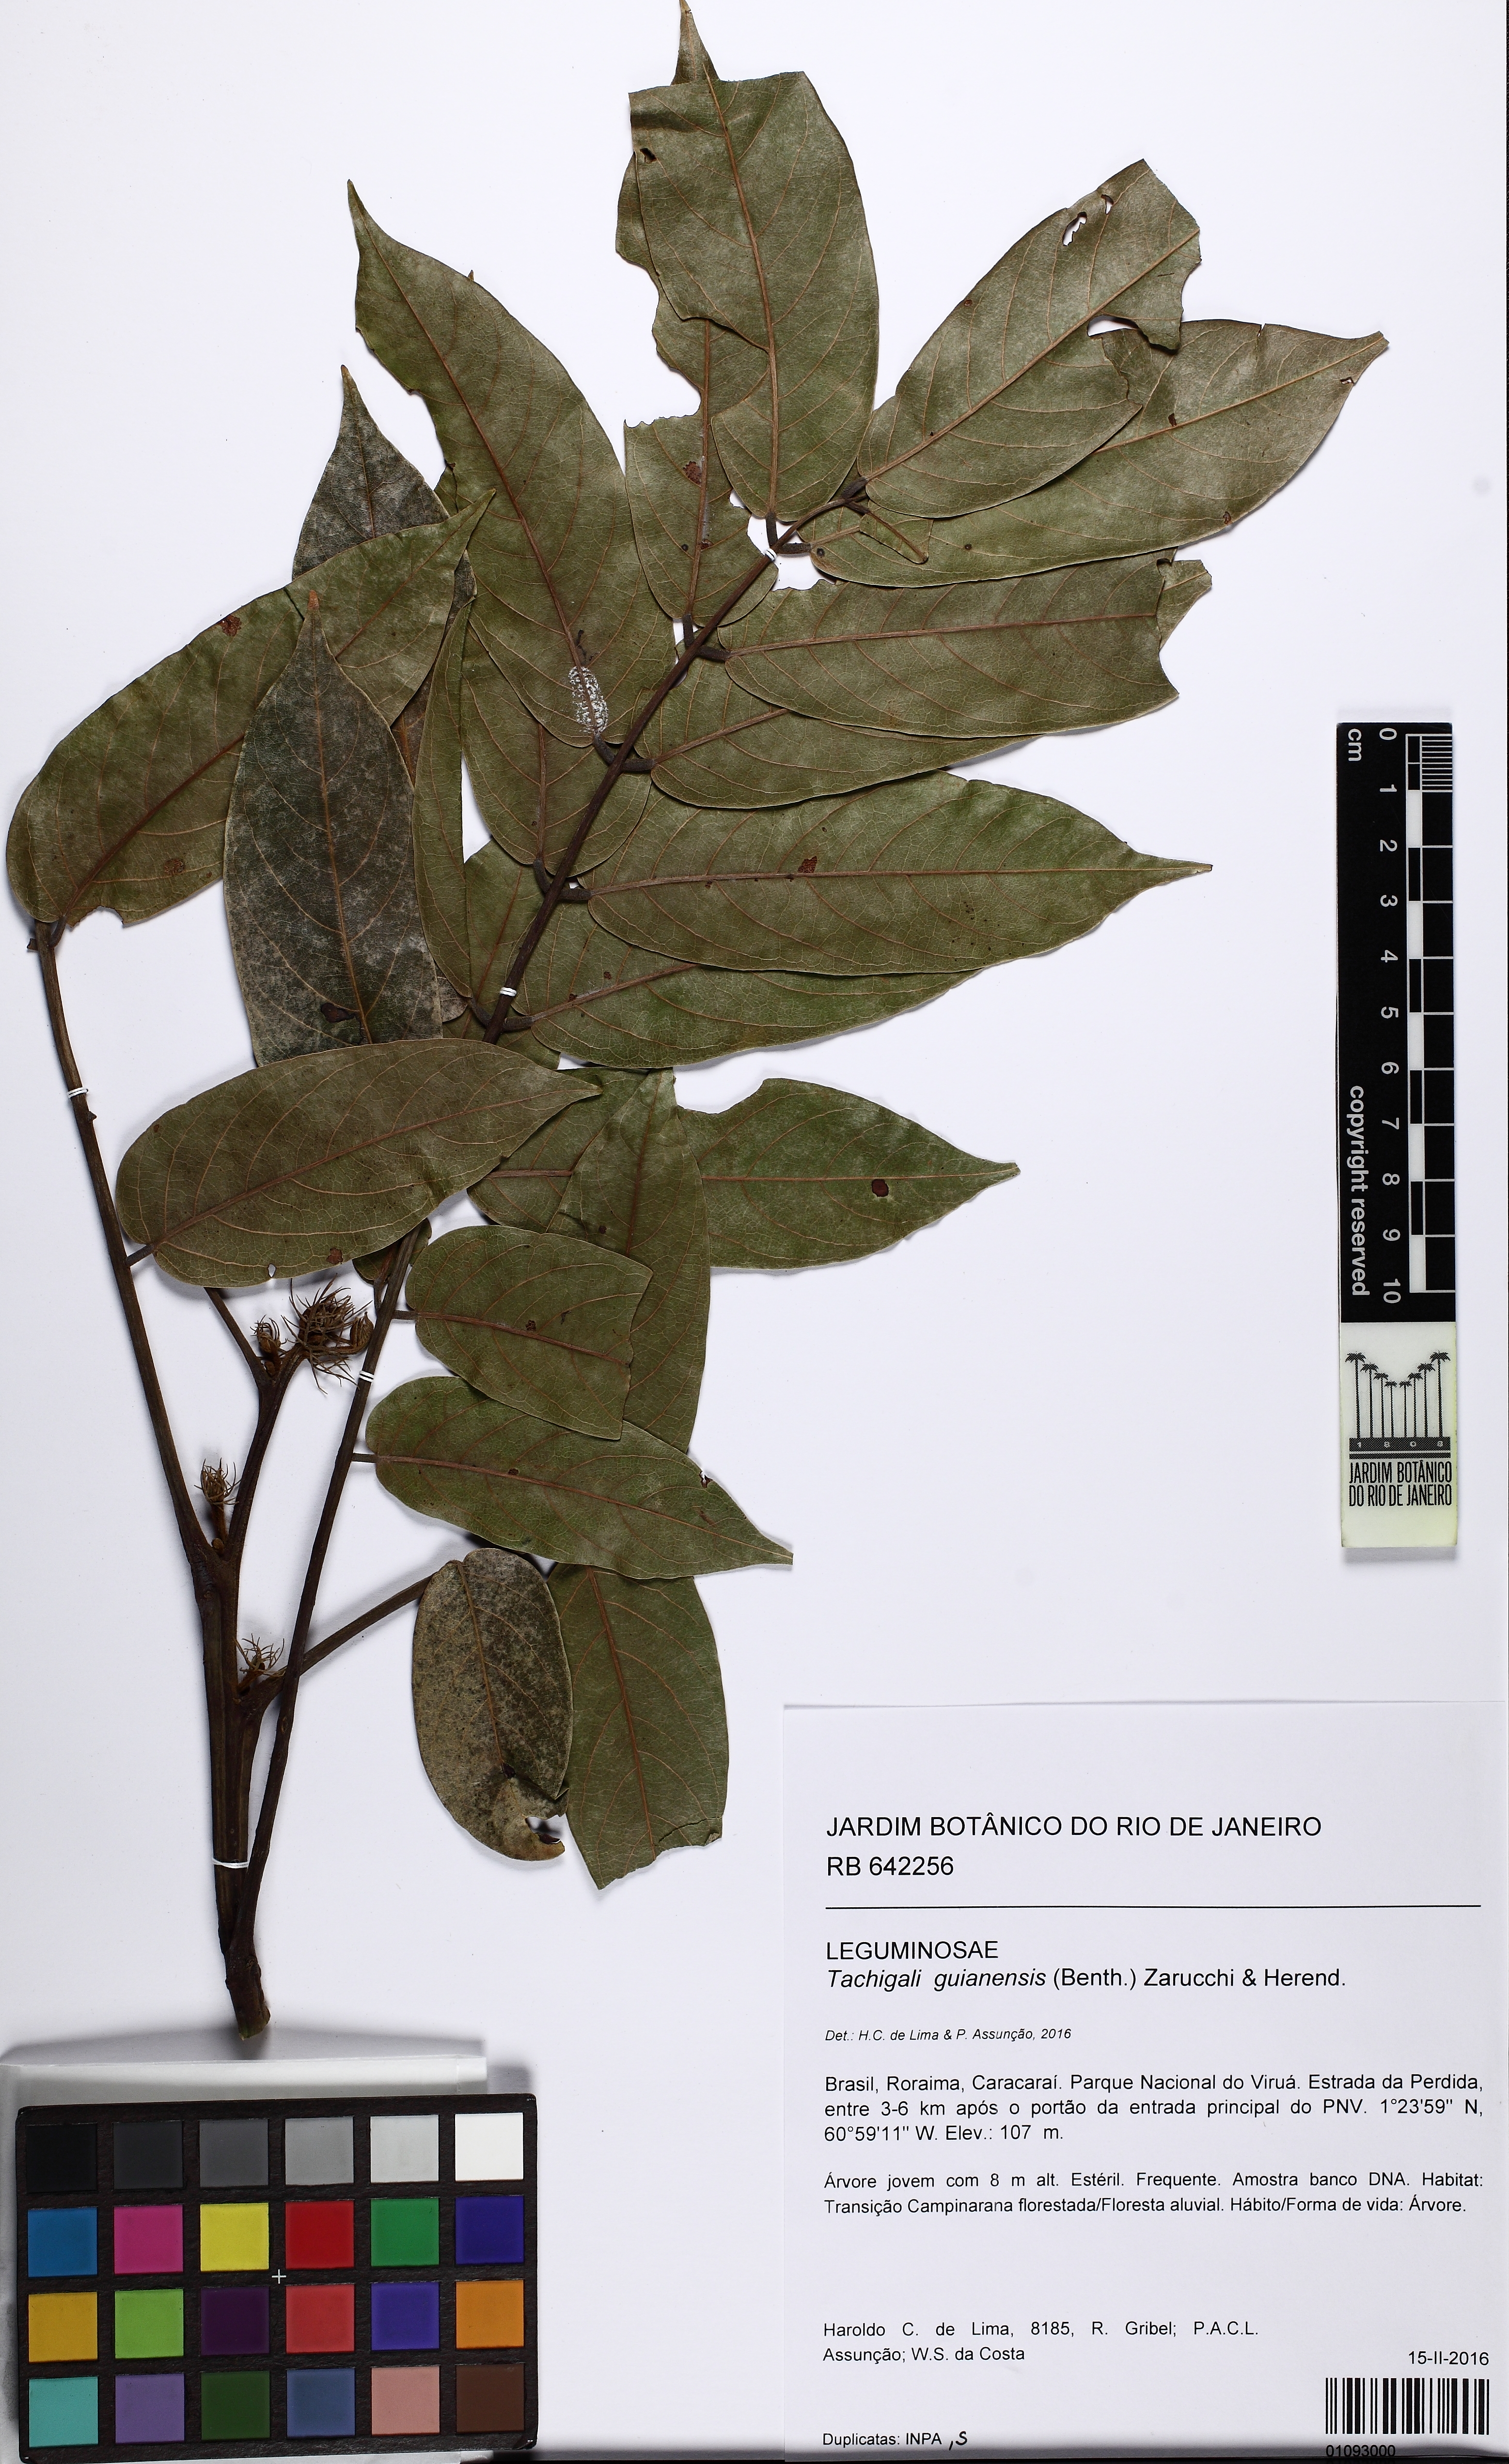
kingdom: Plantae
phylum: Tracheophyta
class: Magnoliopsida
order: Fabales
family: Fabaceae
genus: Tachigali
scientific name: Tachigali guianensis
